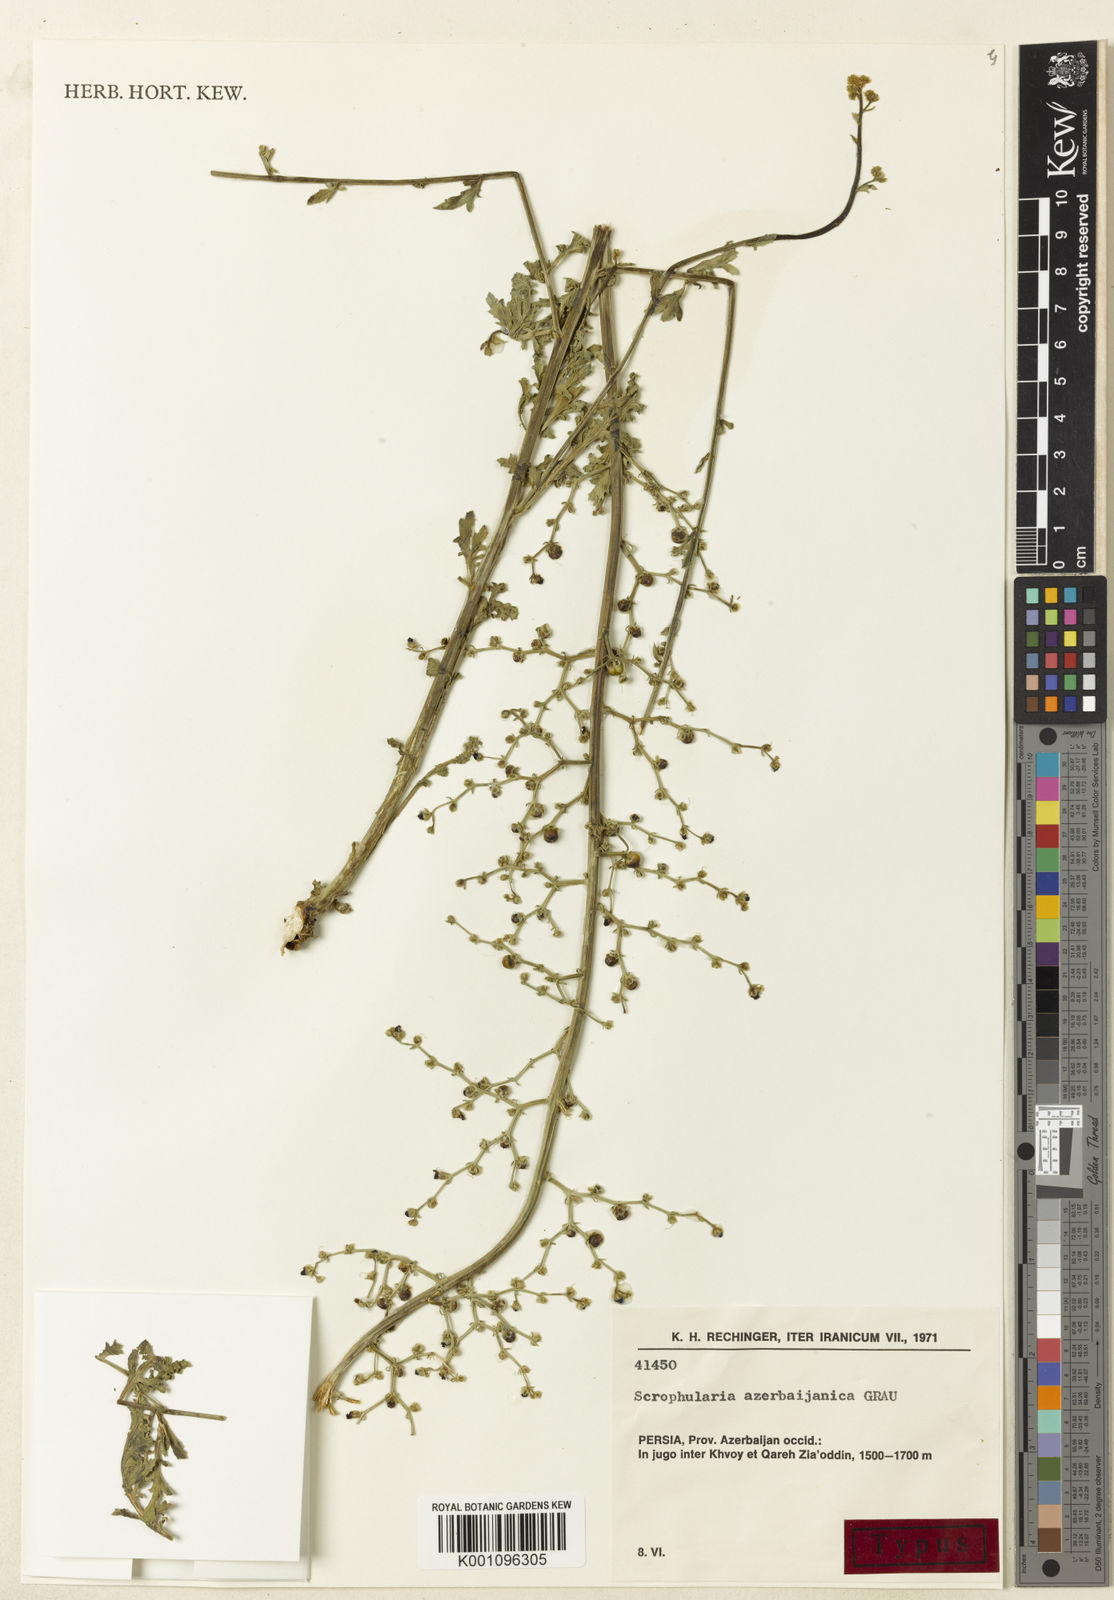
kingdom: Plantae
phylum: Tracheophyta
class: Magnoliopsida
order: Lamiales
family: Scrophulariaceae
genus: Scrophularia
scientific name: Scrophularia azerbaijanica
